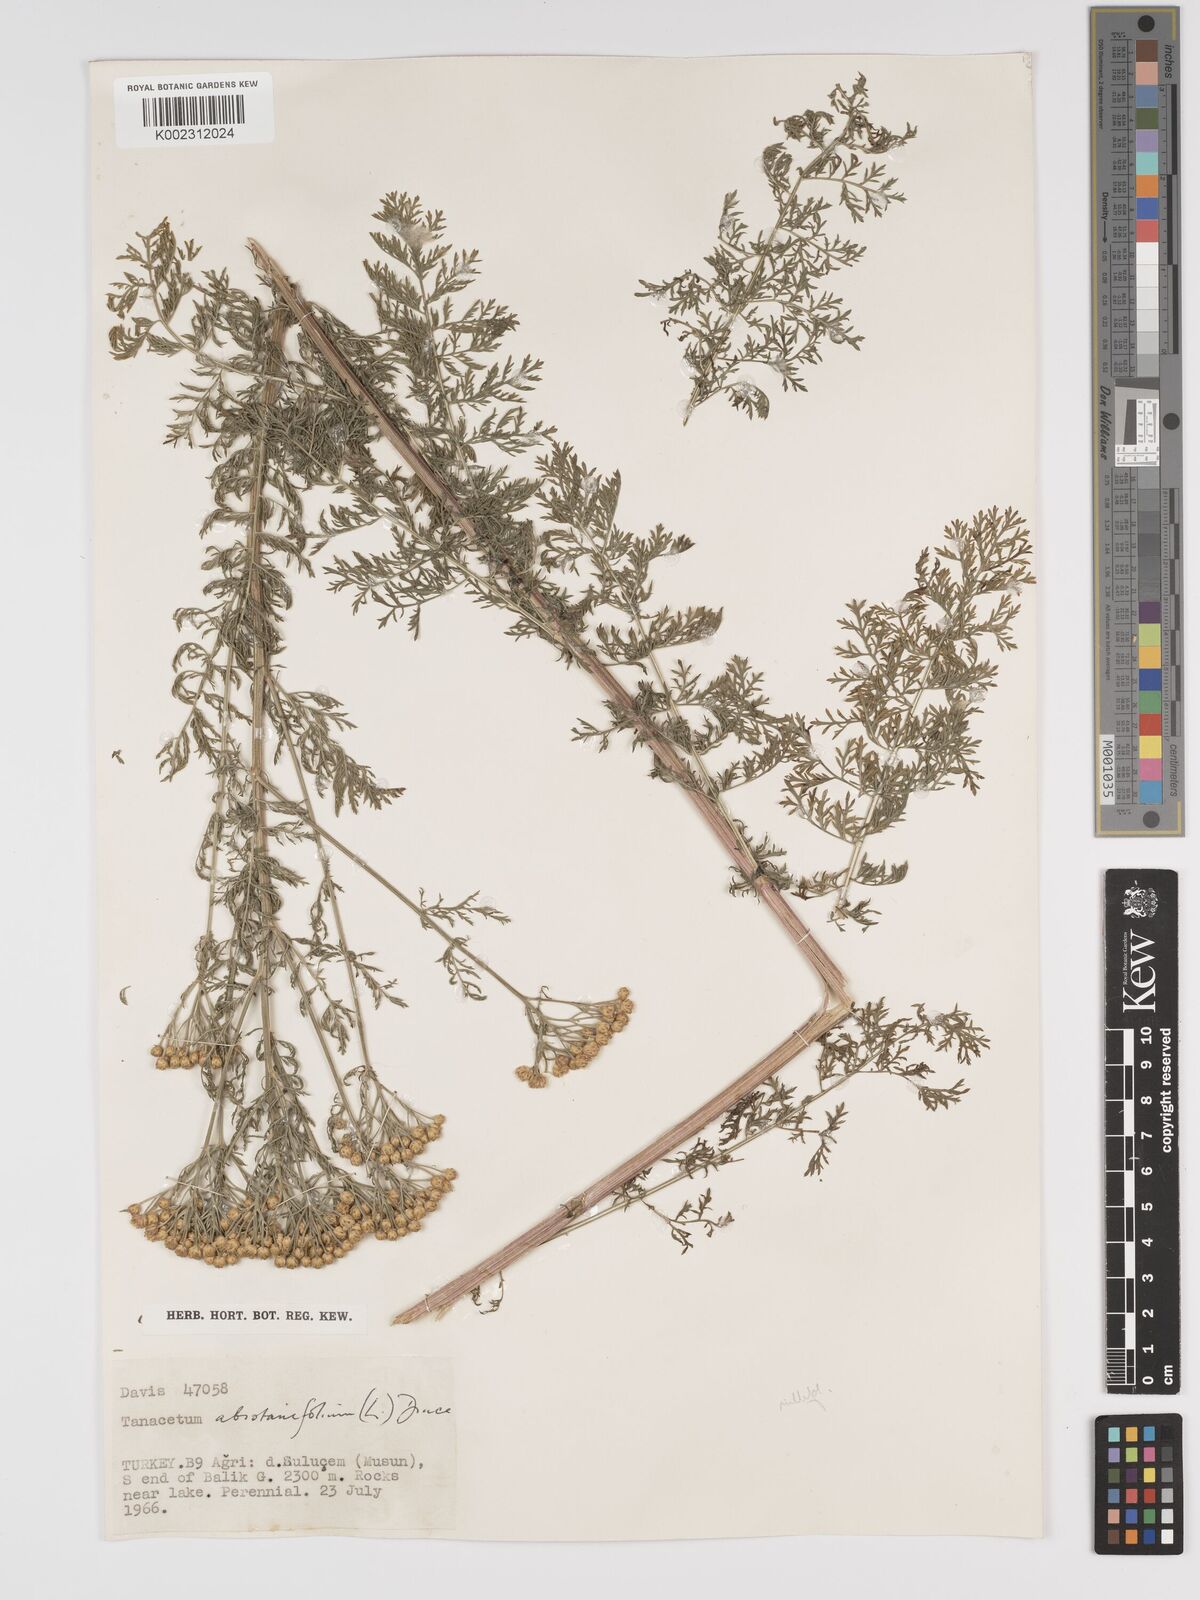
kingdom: Plantae
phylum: Tracheophyta
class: Magnoliopsida
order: Asterales
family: Asteraceae
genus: Tanacetum
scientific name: Tanacetum abrotanifolium
